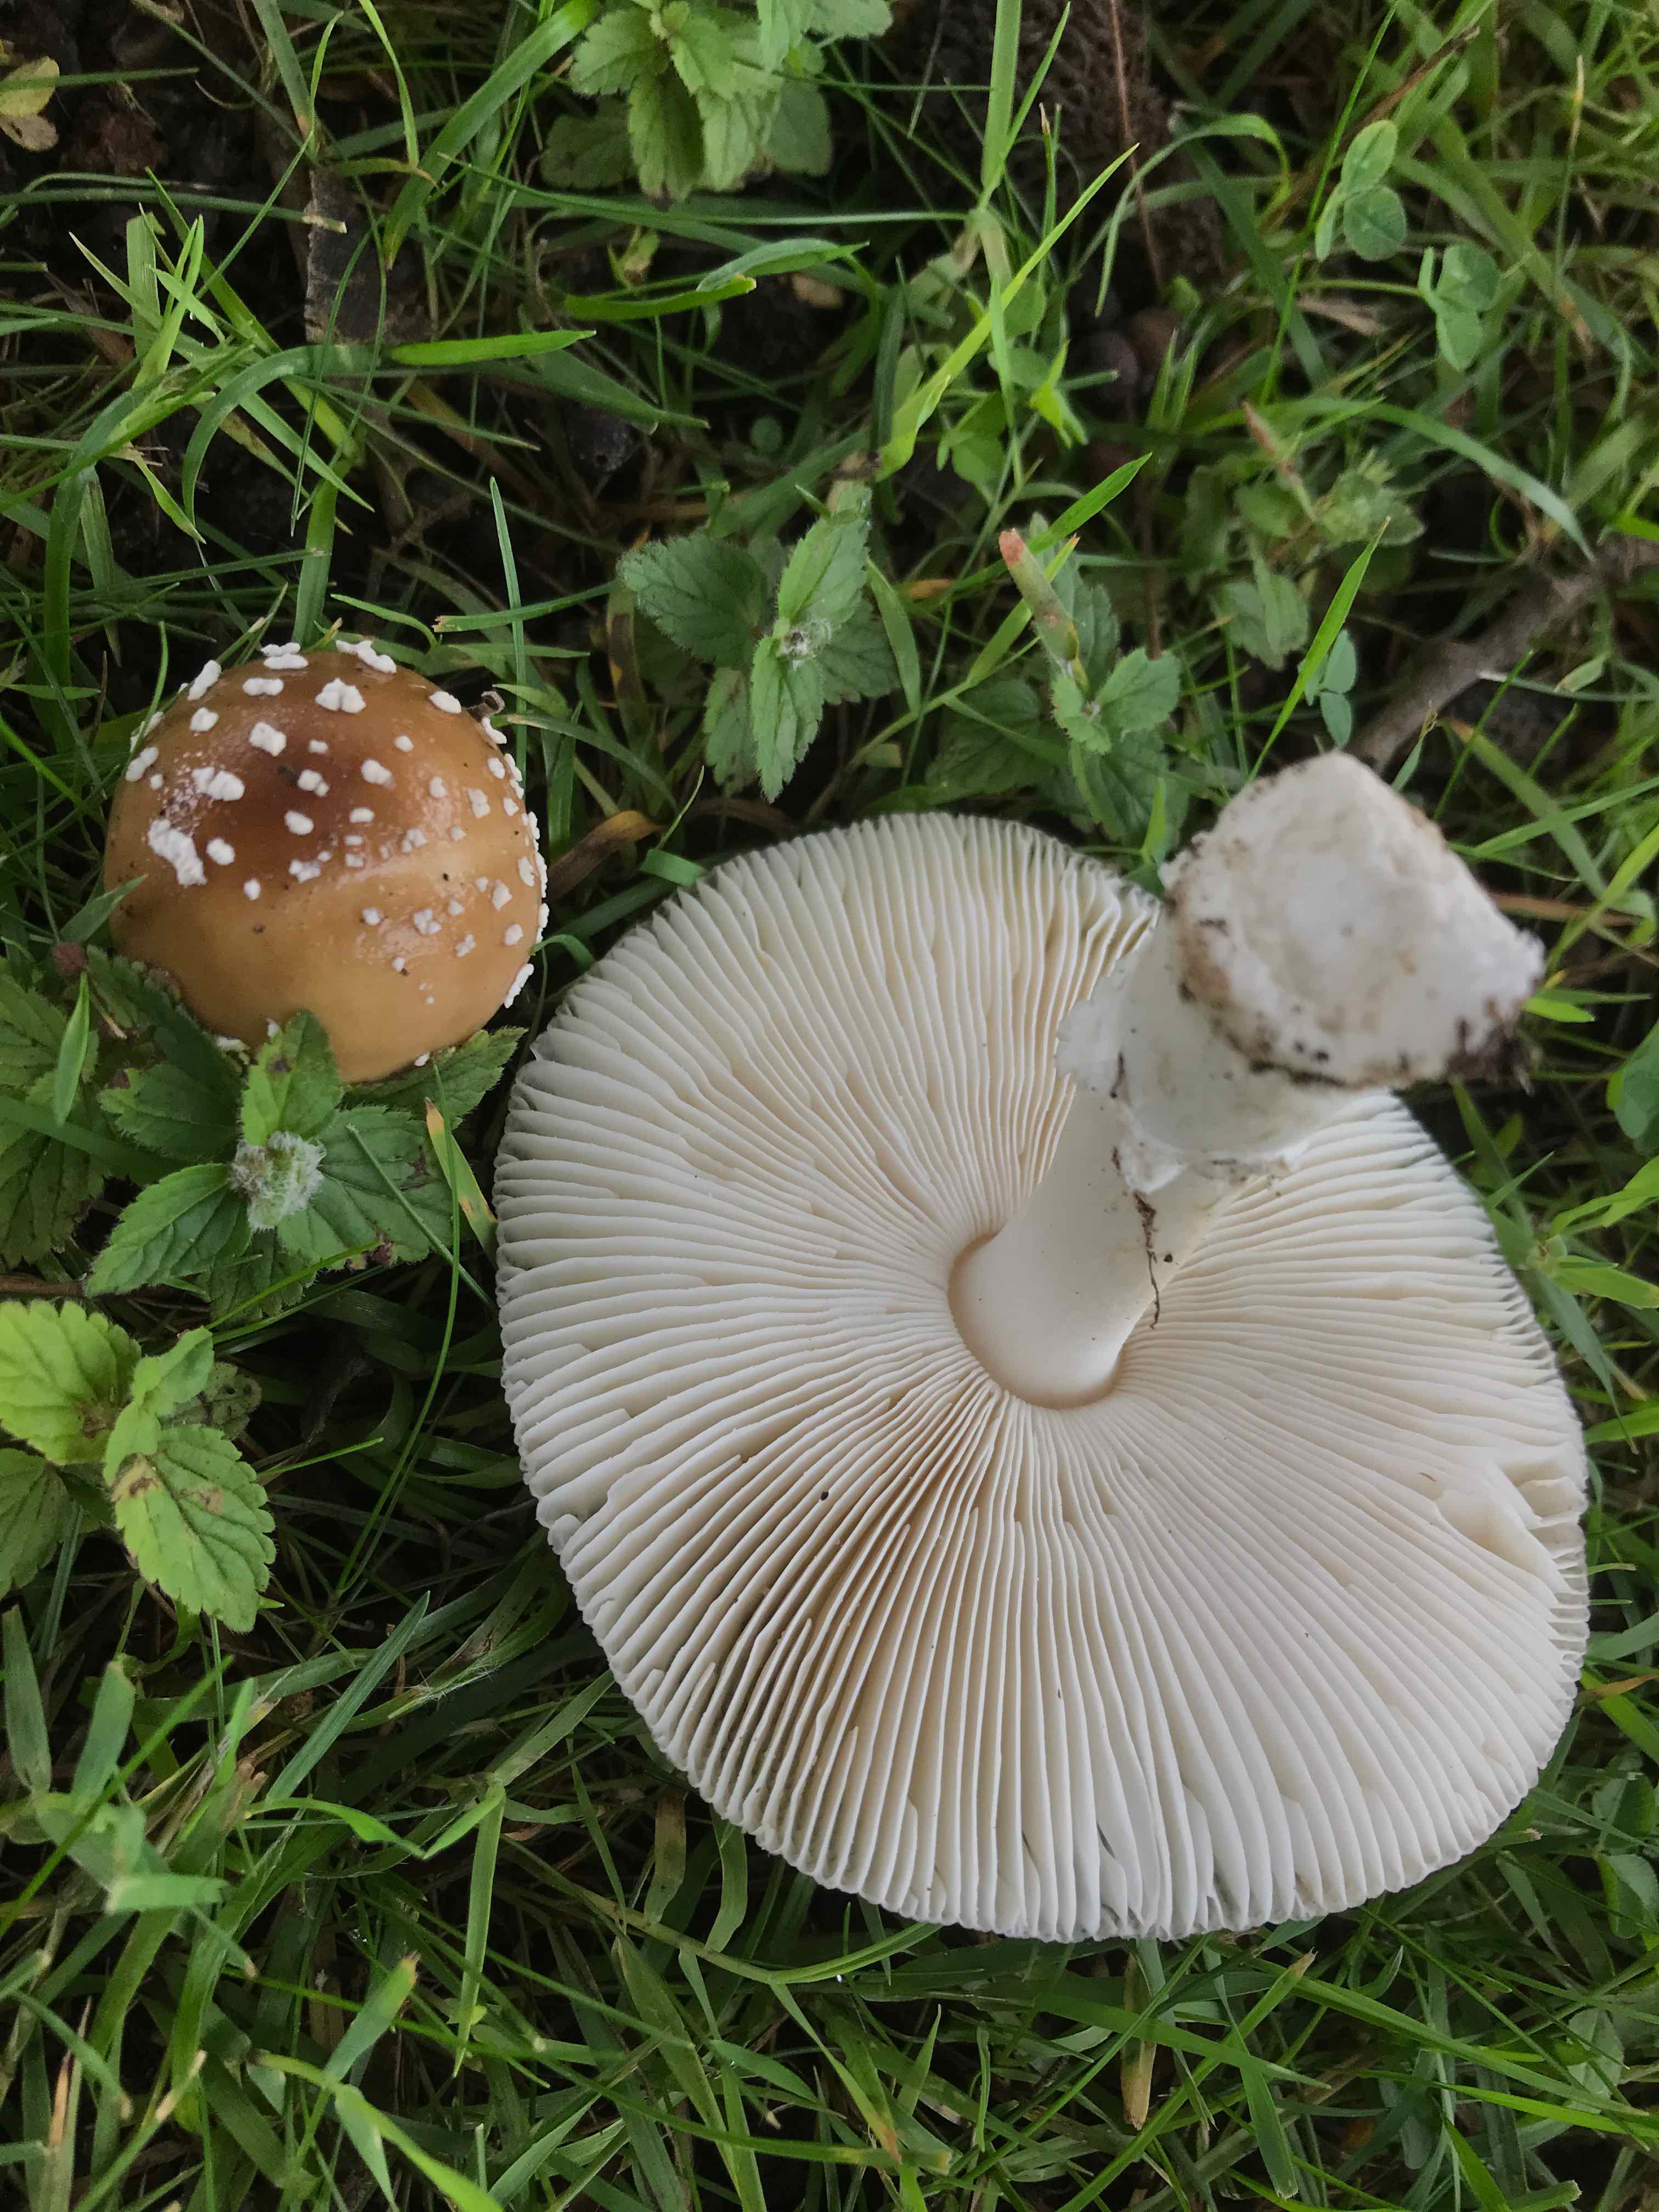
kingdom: Fungi
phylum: Basidiomycota
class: Agaricomycetes
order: Agaricales
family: Amanitaceae
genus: Amanita
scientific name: Amanita pantherina
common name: panter-fluesvamp
